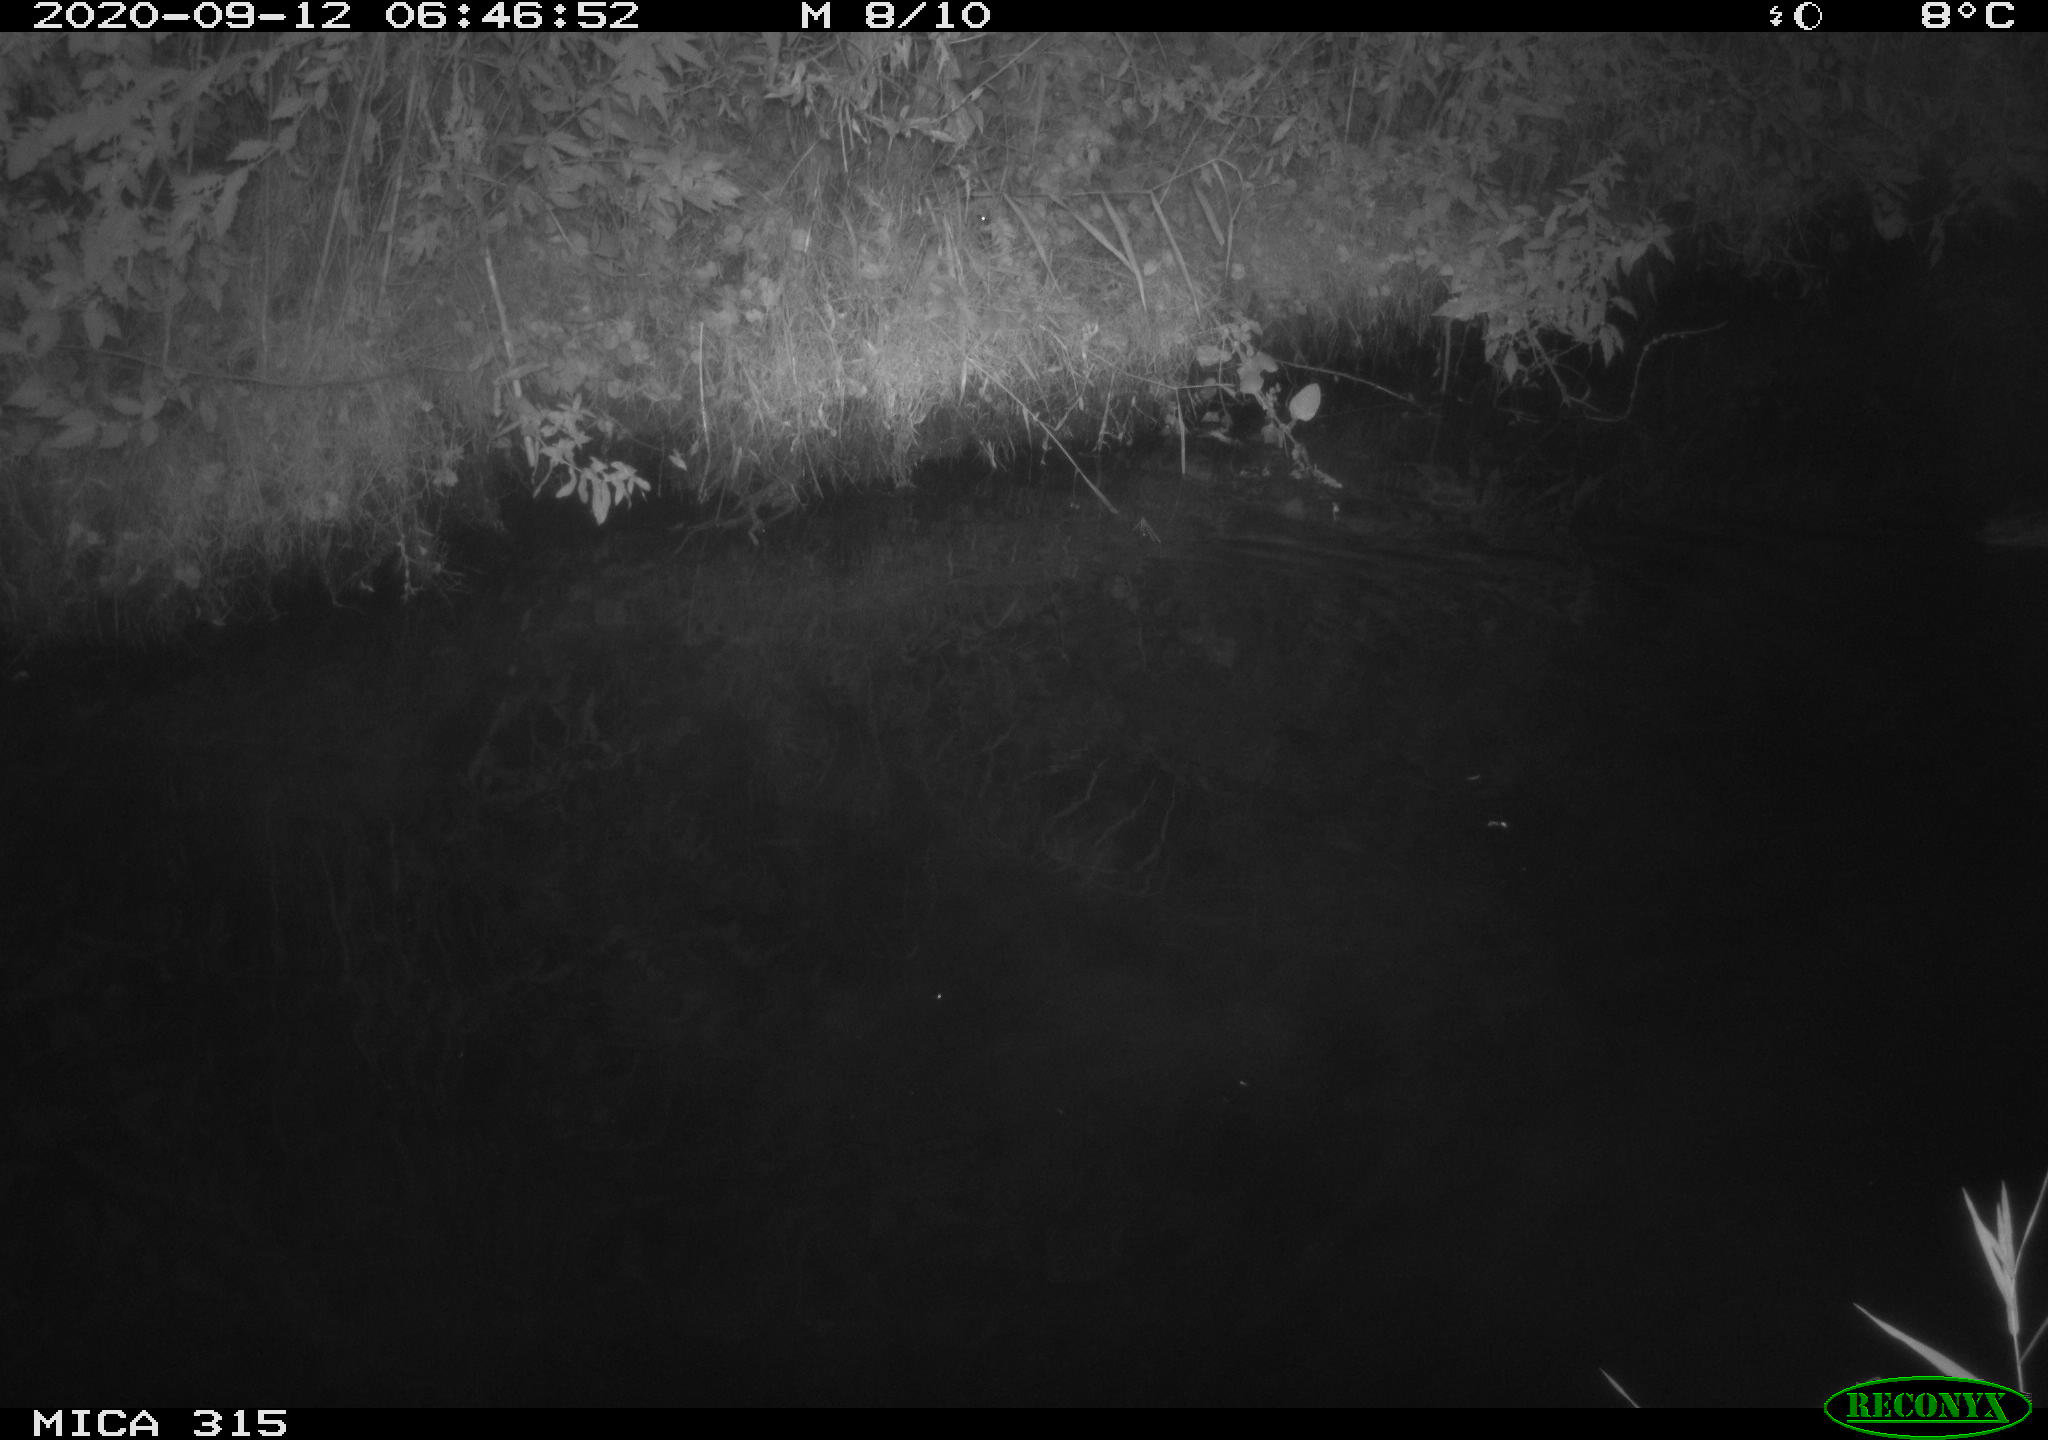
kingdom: Animalia
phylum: Chordata
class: Aves
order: Anseriformes
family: Anatidae
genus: Anas
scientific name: Anas platyrhynchos
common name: Mallard
